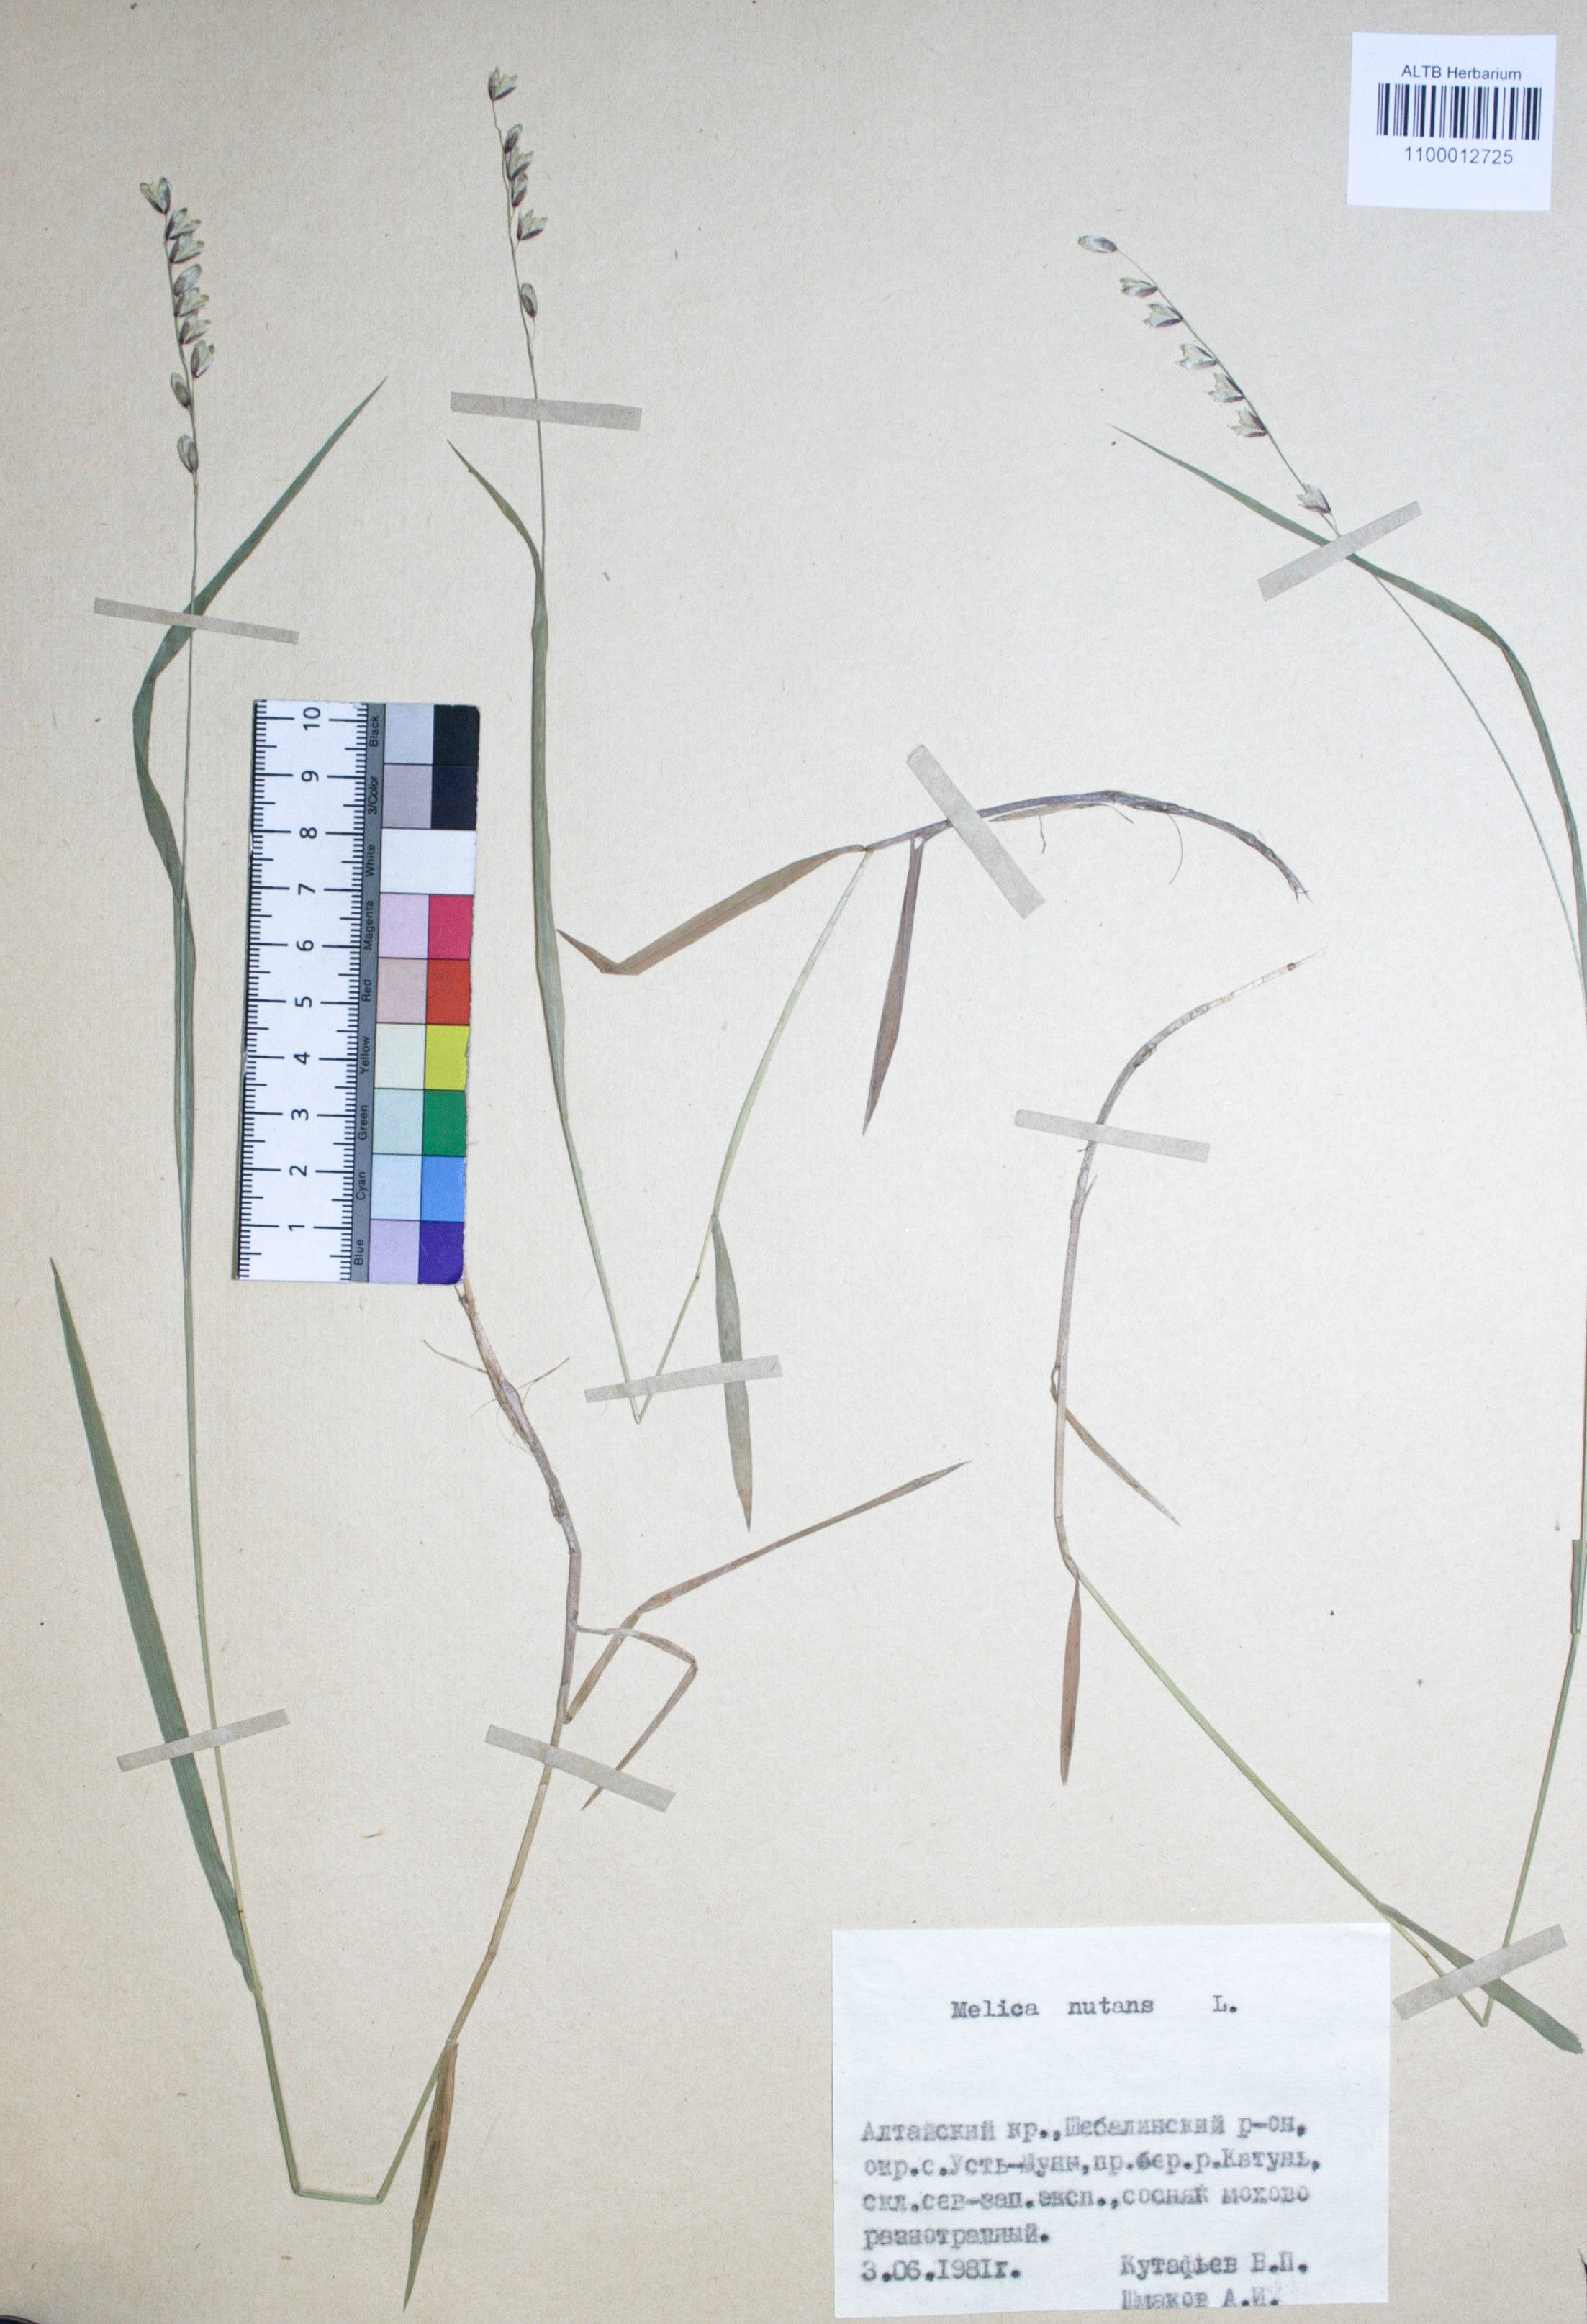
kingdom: Plantae
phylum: Tracheophyta
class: Liliopsida
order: Poales
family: Poaceae
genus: Melica
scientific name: Melica nutans
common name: Mountain melick
